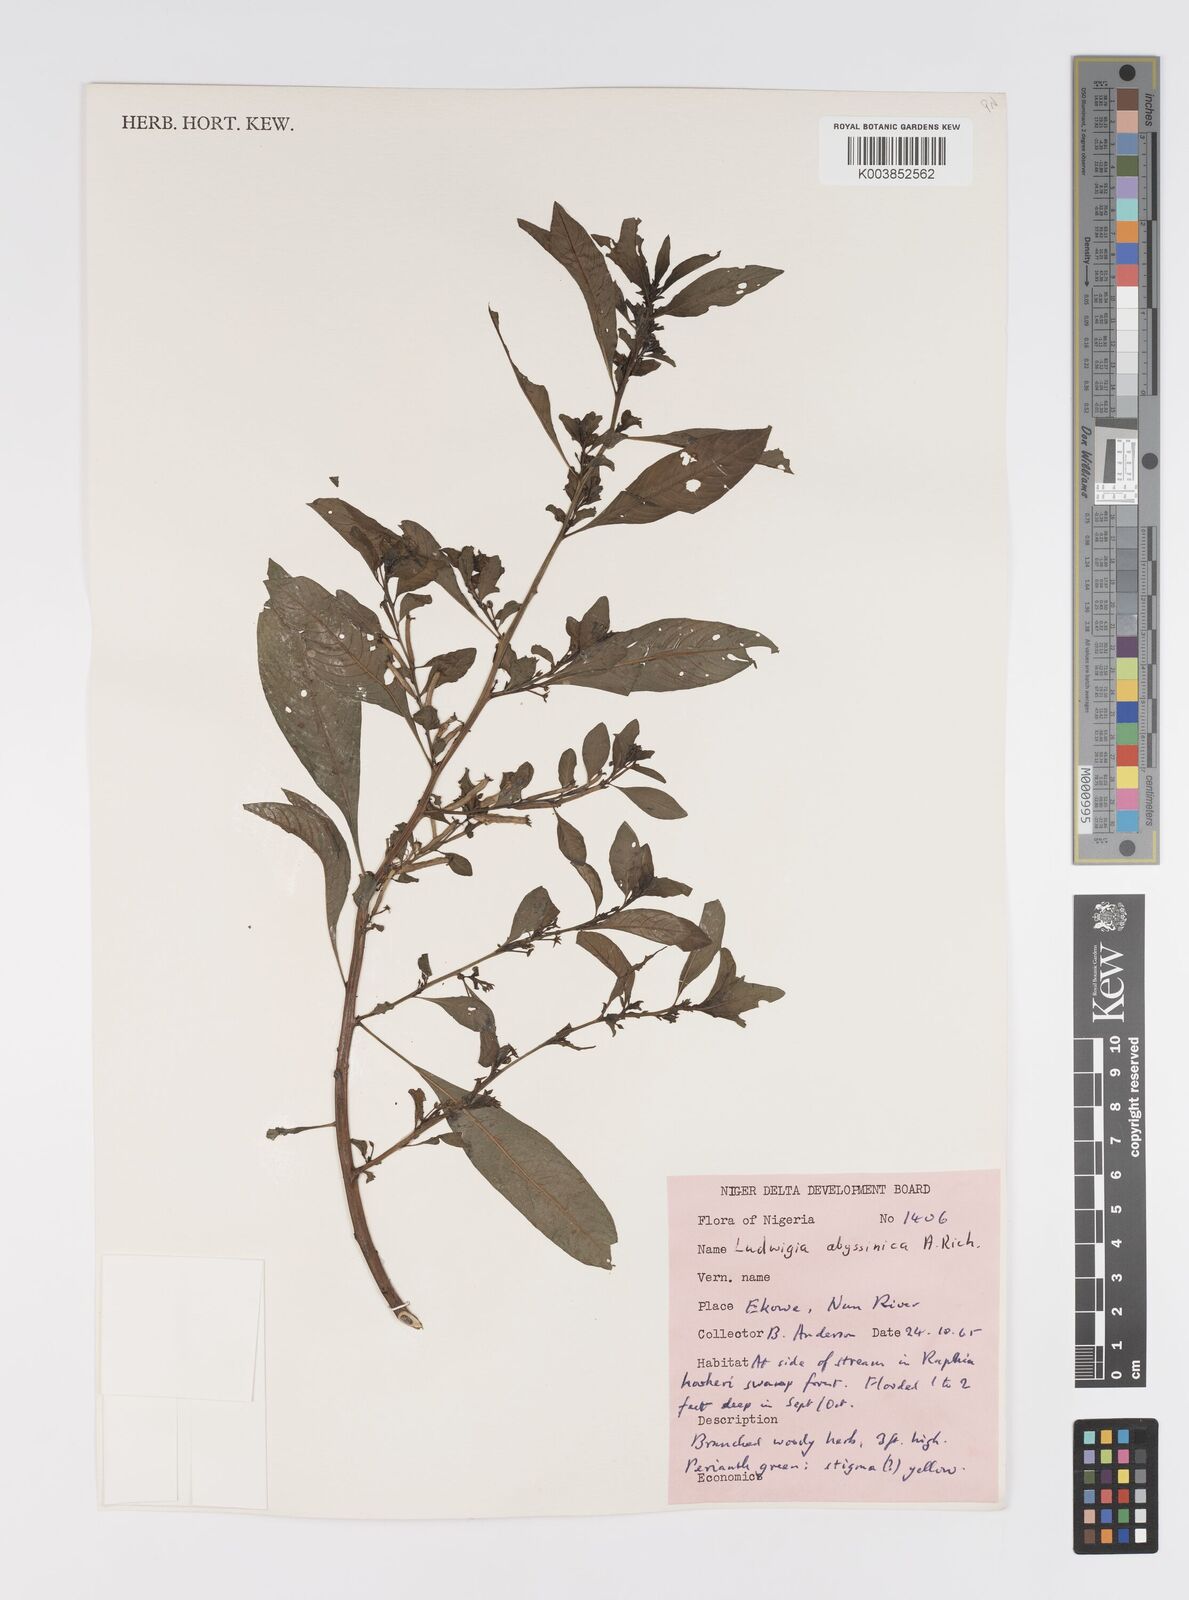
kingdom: Plantae
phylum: Tracheophyta
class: Magnoliopsida
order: Myrtales
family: Onagraceae
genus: Ludwigia
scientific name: Ludwigia abyssinica
